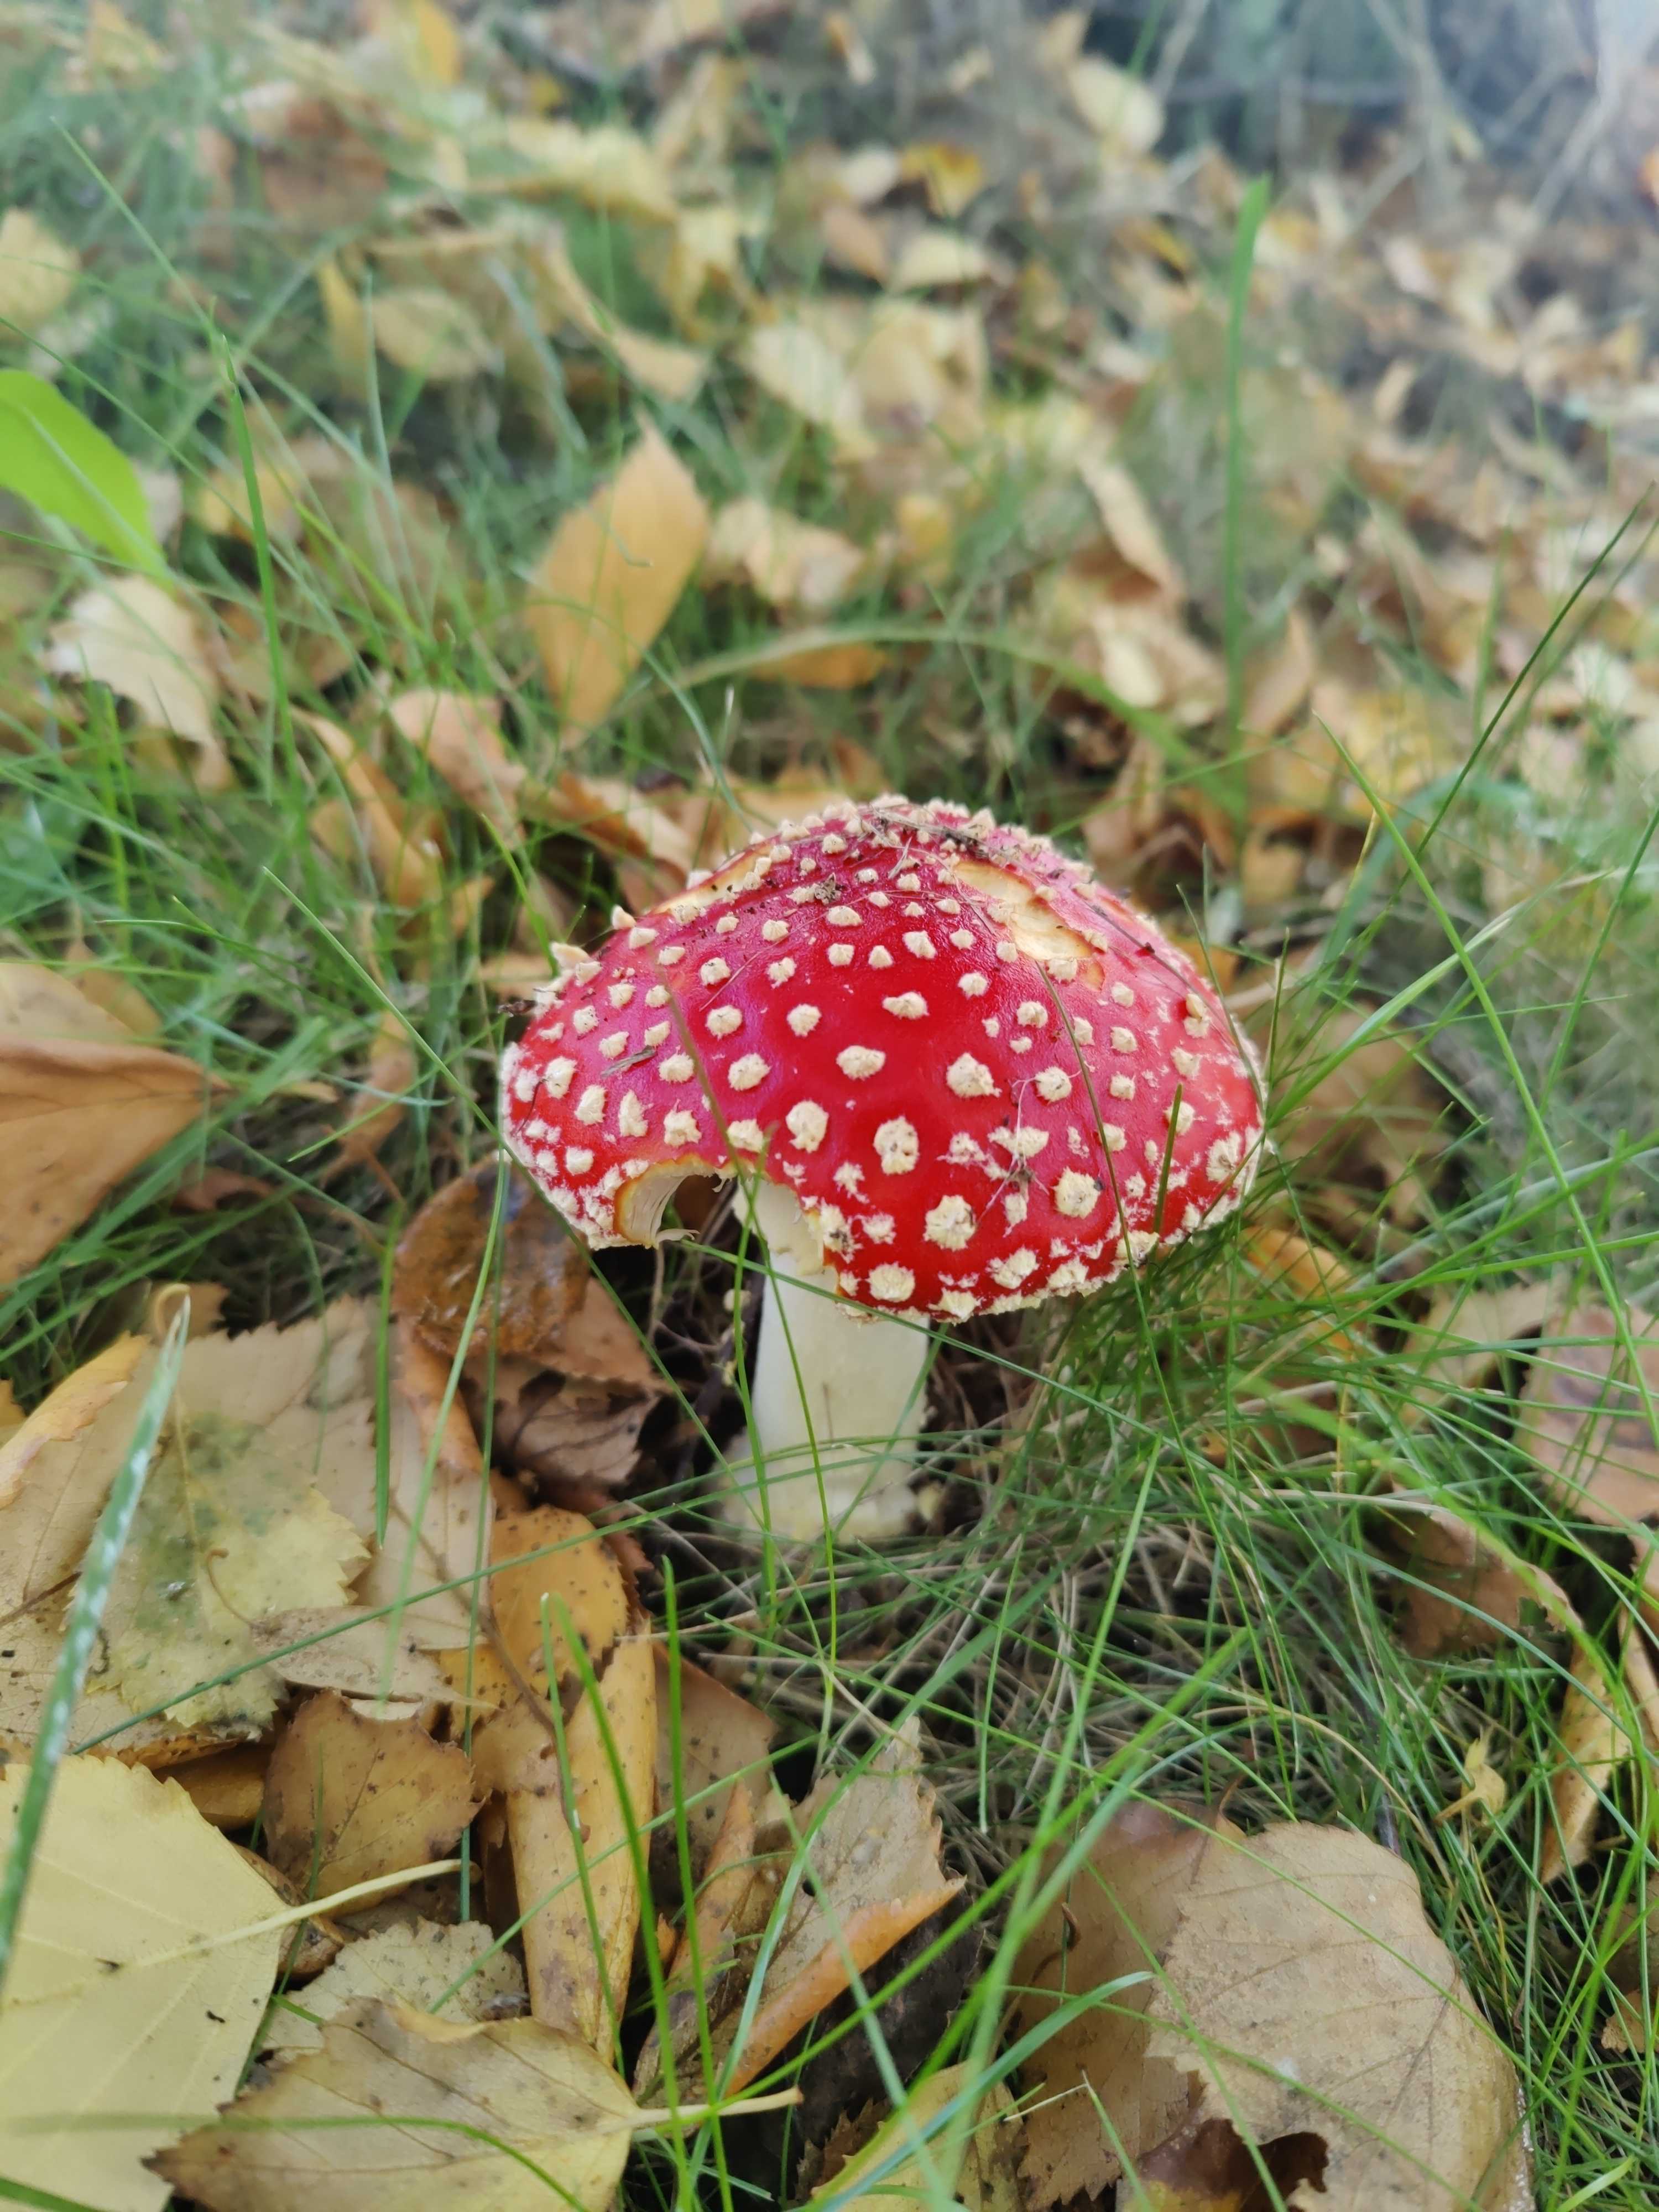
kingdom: Fungi
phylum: Basidiomycota
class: Agaricomycetes
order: Agaricales
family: Amanitaceae
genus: Amanita
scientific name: Amanita muscaria
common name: rød fluesvamp
